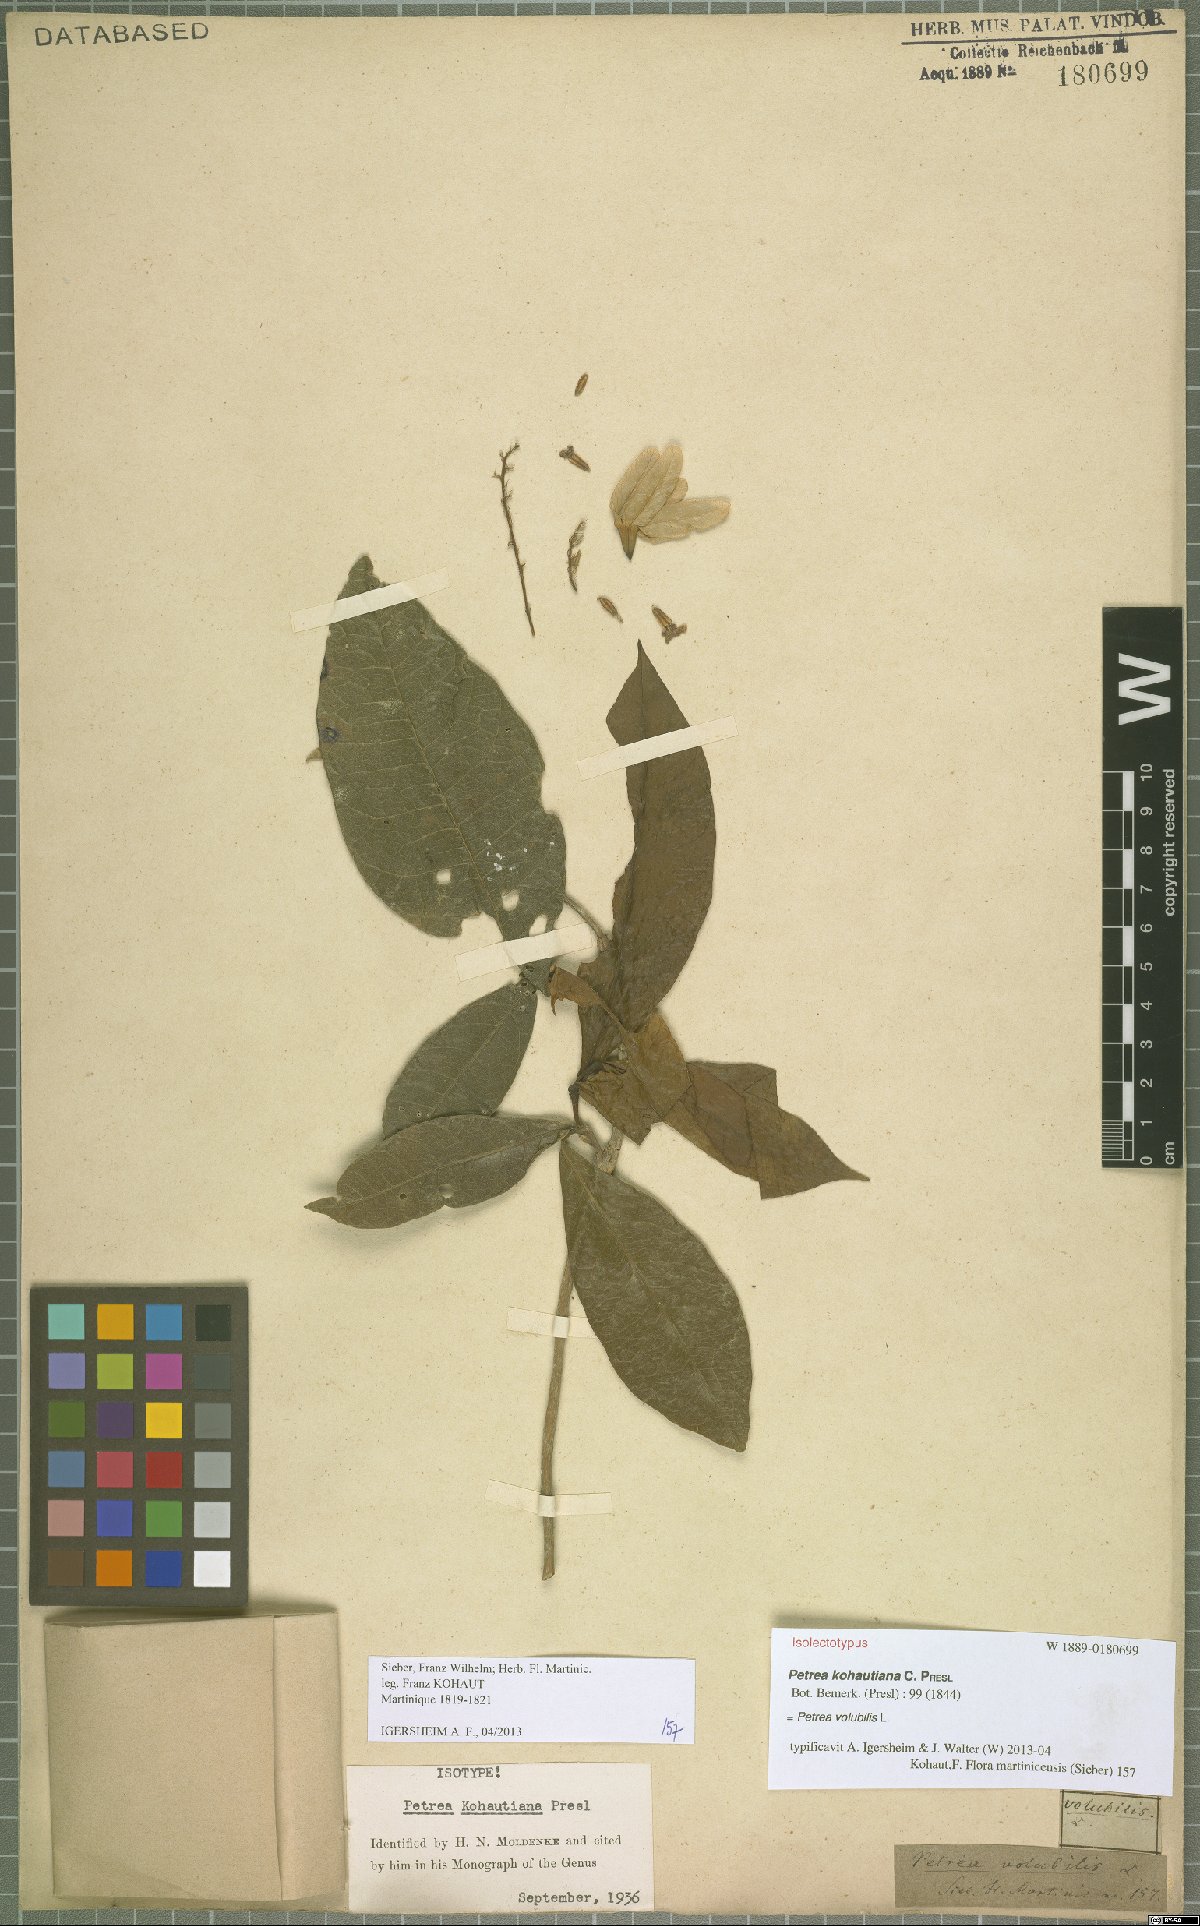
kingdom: Plantae
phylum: Tracheophyta
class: Magnoliopsida
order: Lamiales
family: Verbenaceae
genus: Petrea
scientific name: Petrea volubilis
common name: Queen's-wreath
